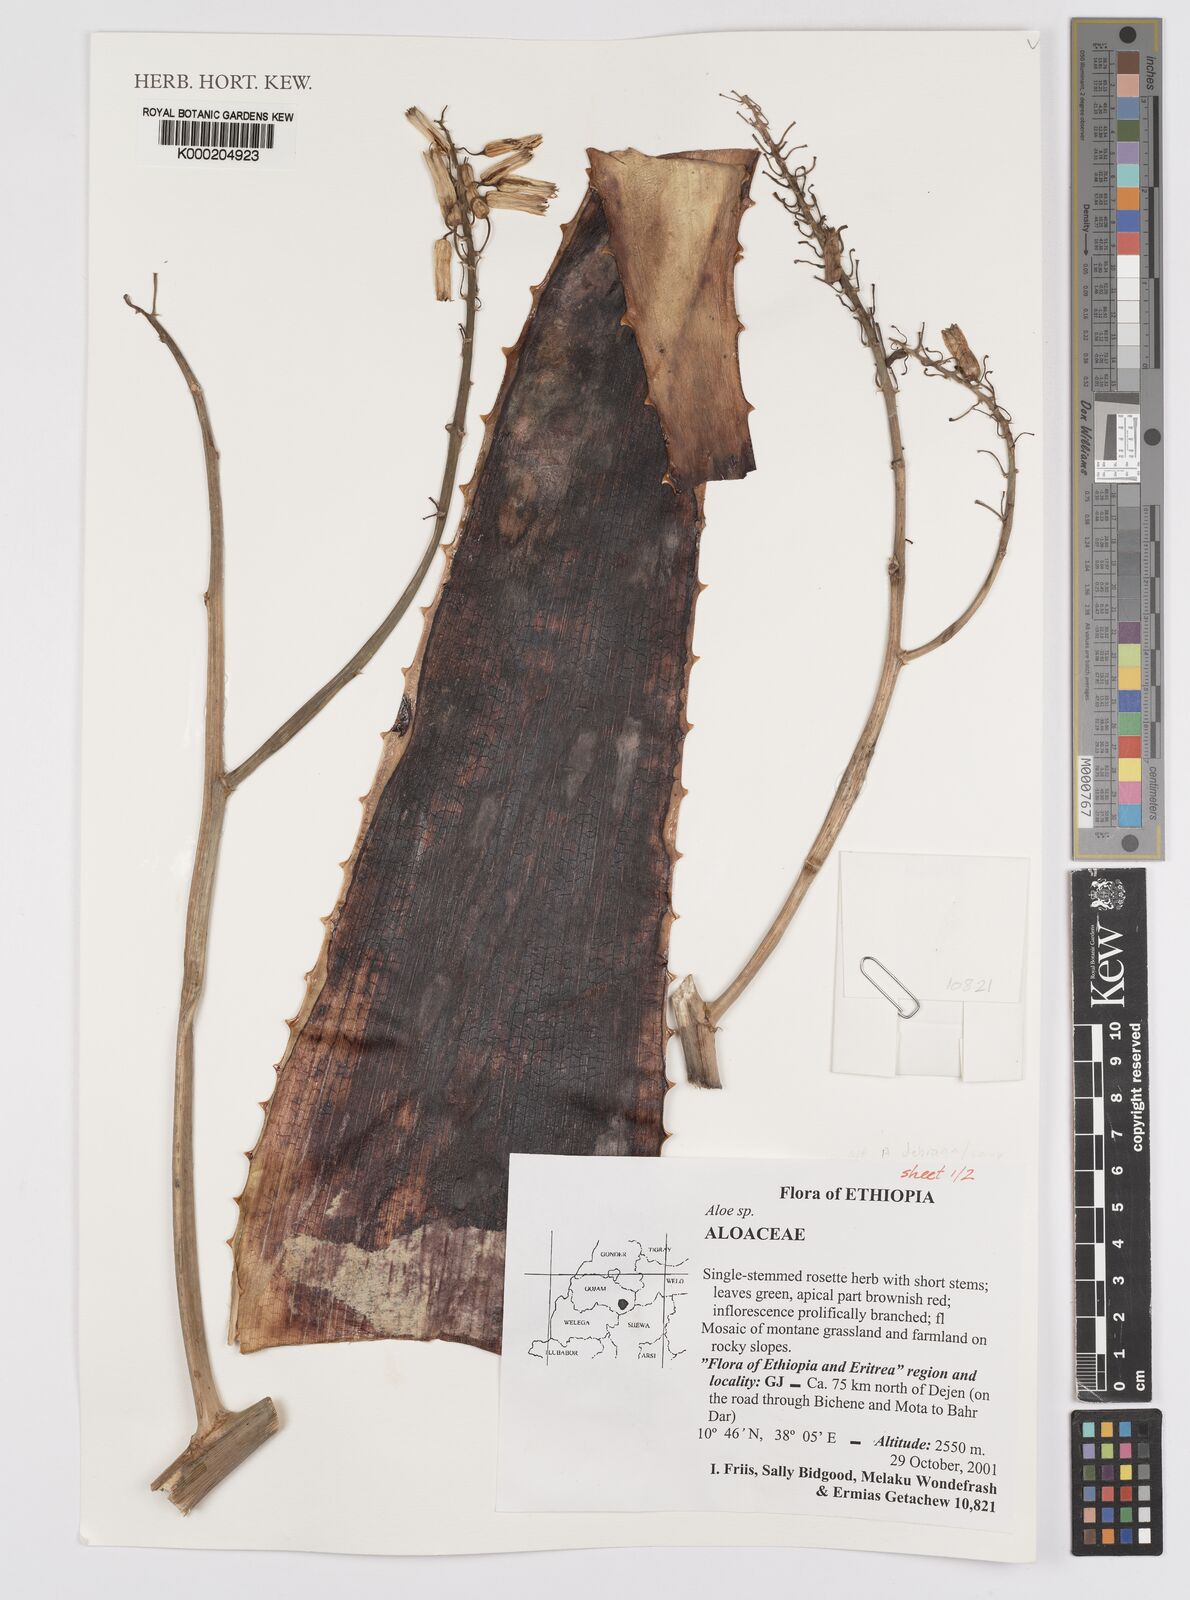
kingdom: Plantae
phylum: Tracheophyta
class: Liliopsida
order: Asparagales
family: Asphodelaceae
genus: Aloe
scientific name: Aloe
